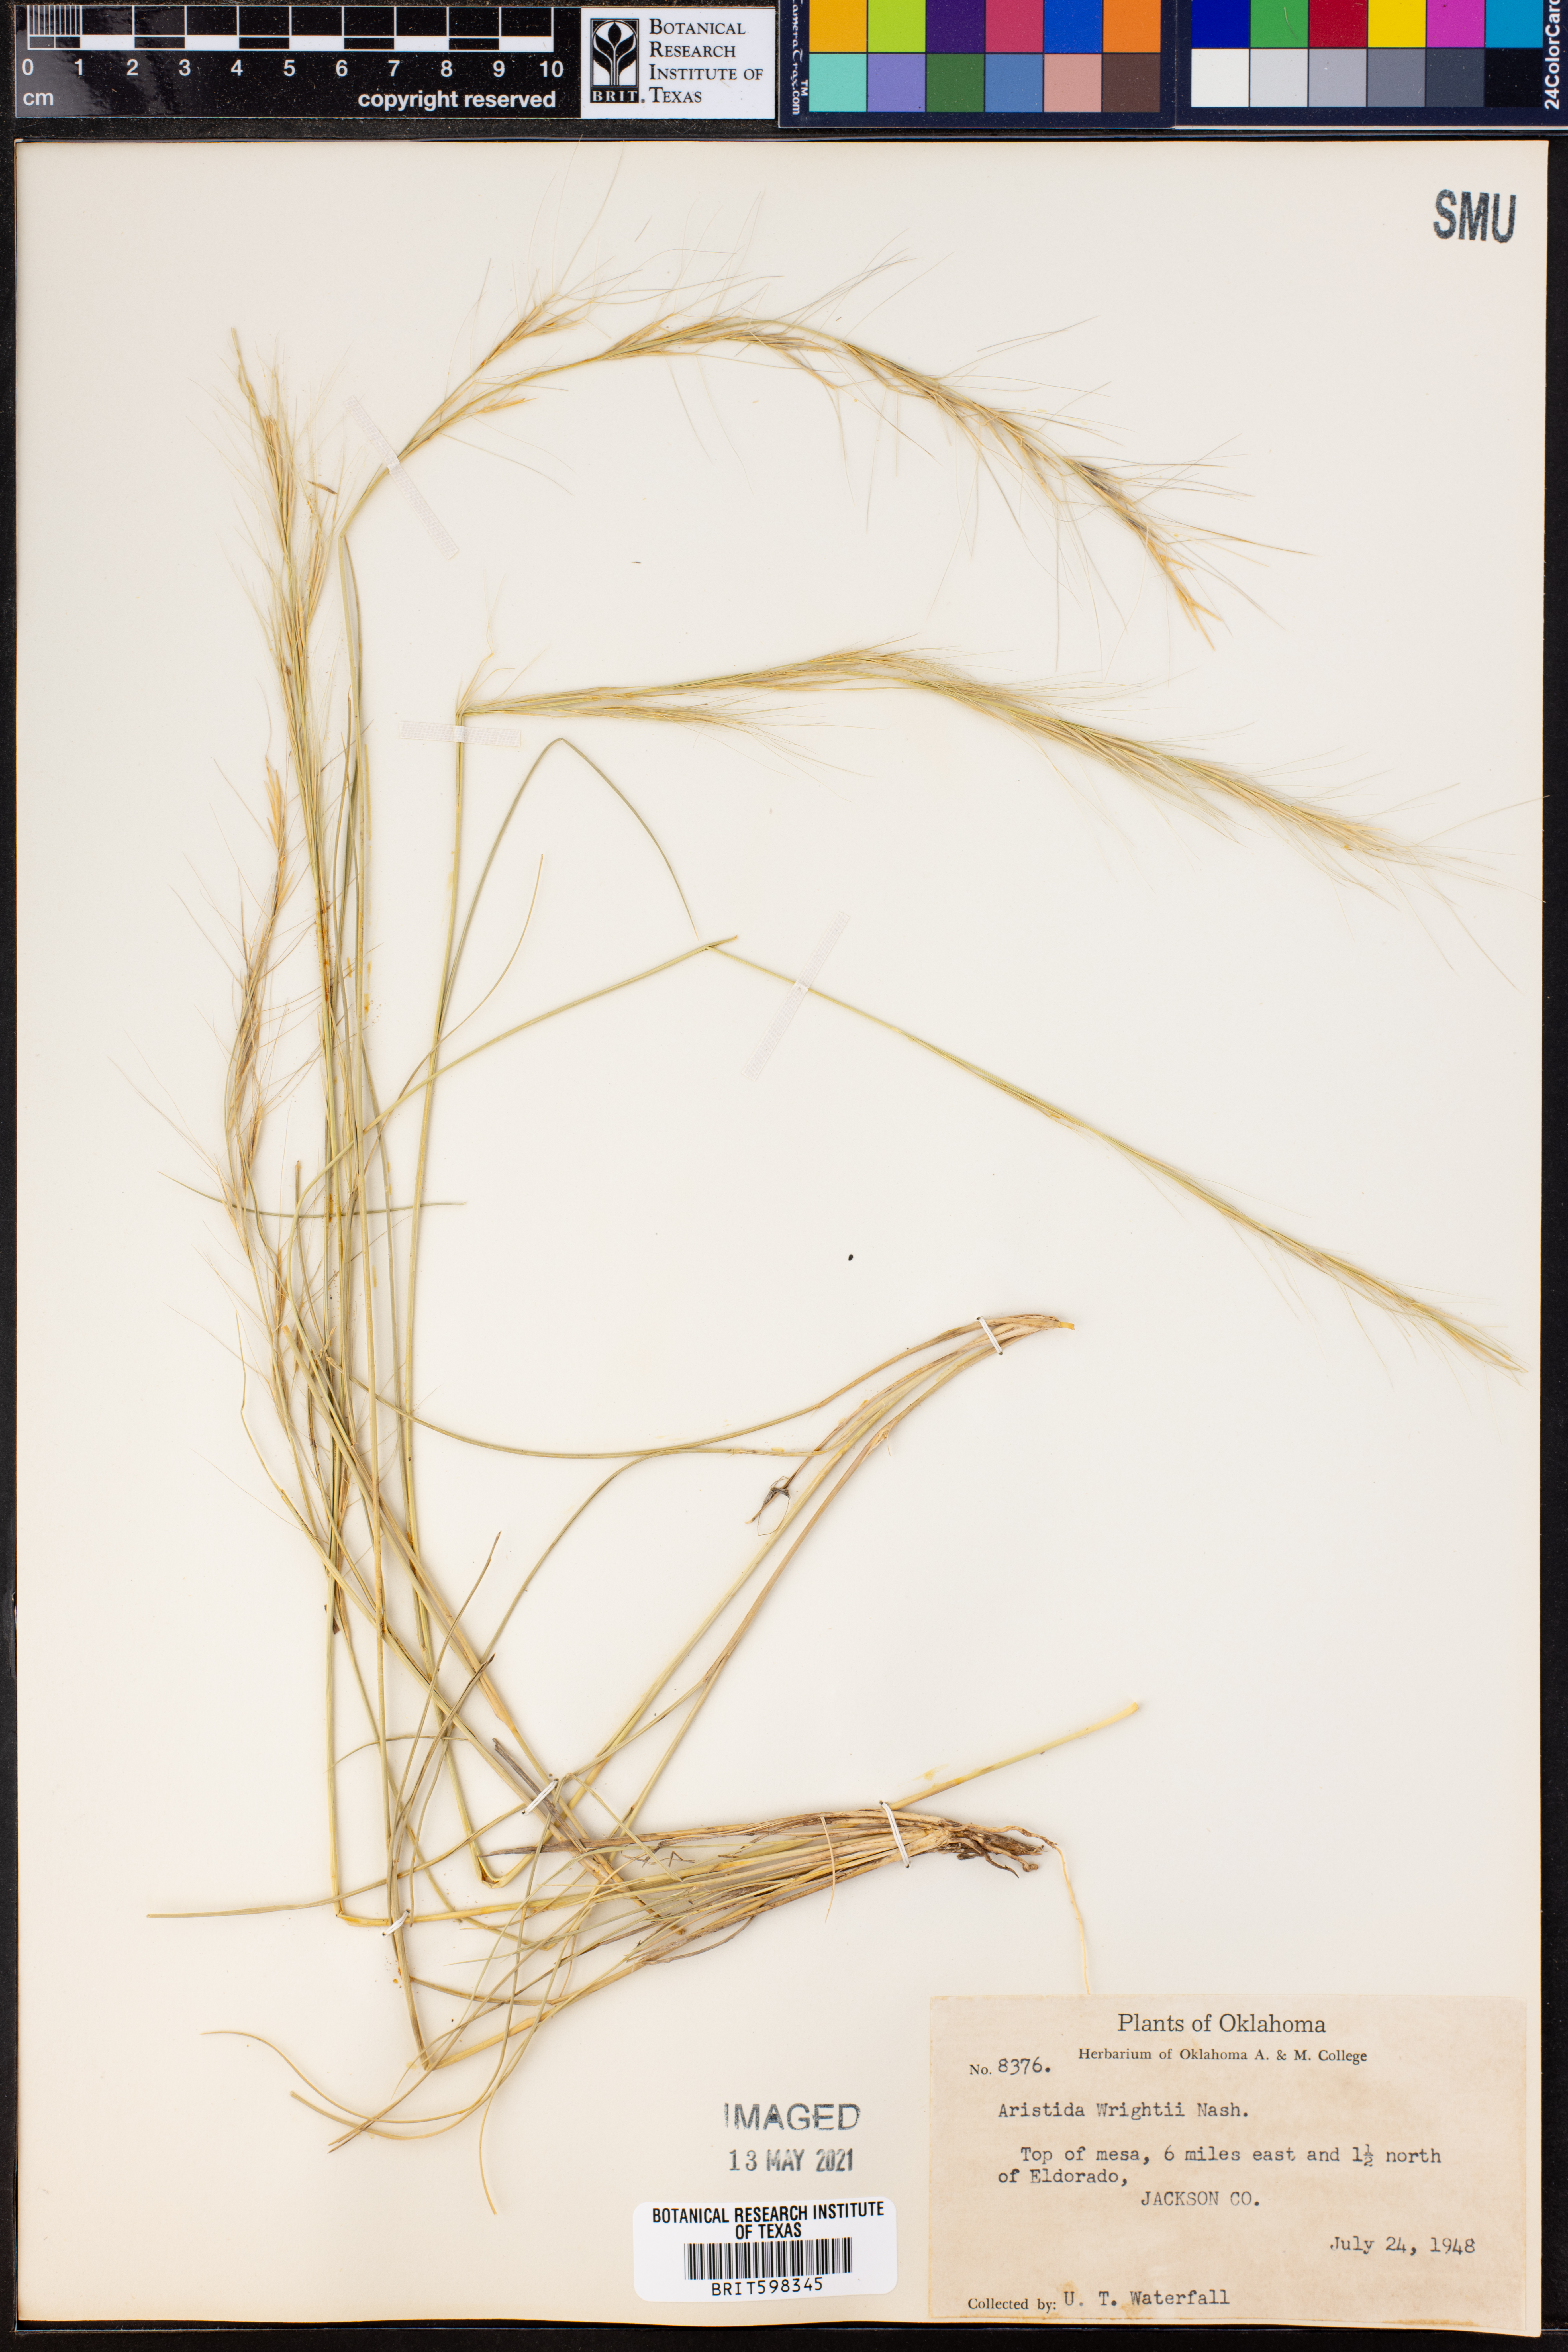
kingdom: Plantae
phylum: Tracheophyta
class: Liliopsida
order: Poales
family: Poaceae
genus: Aristida
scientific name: Aristida wrightii
